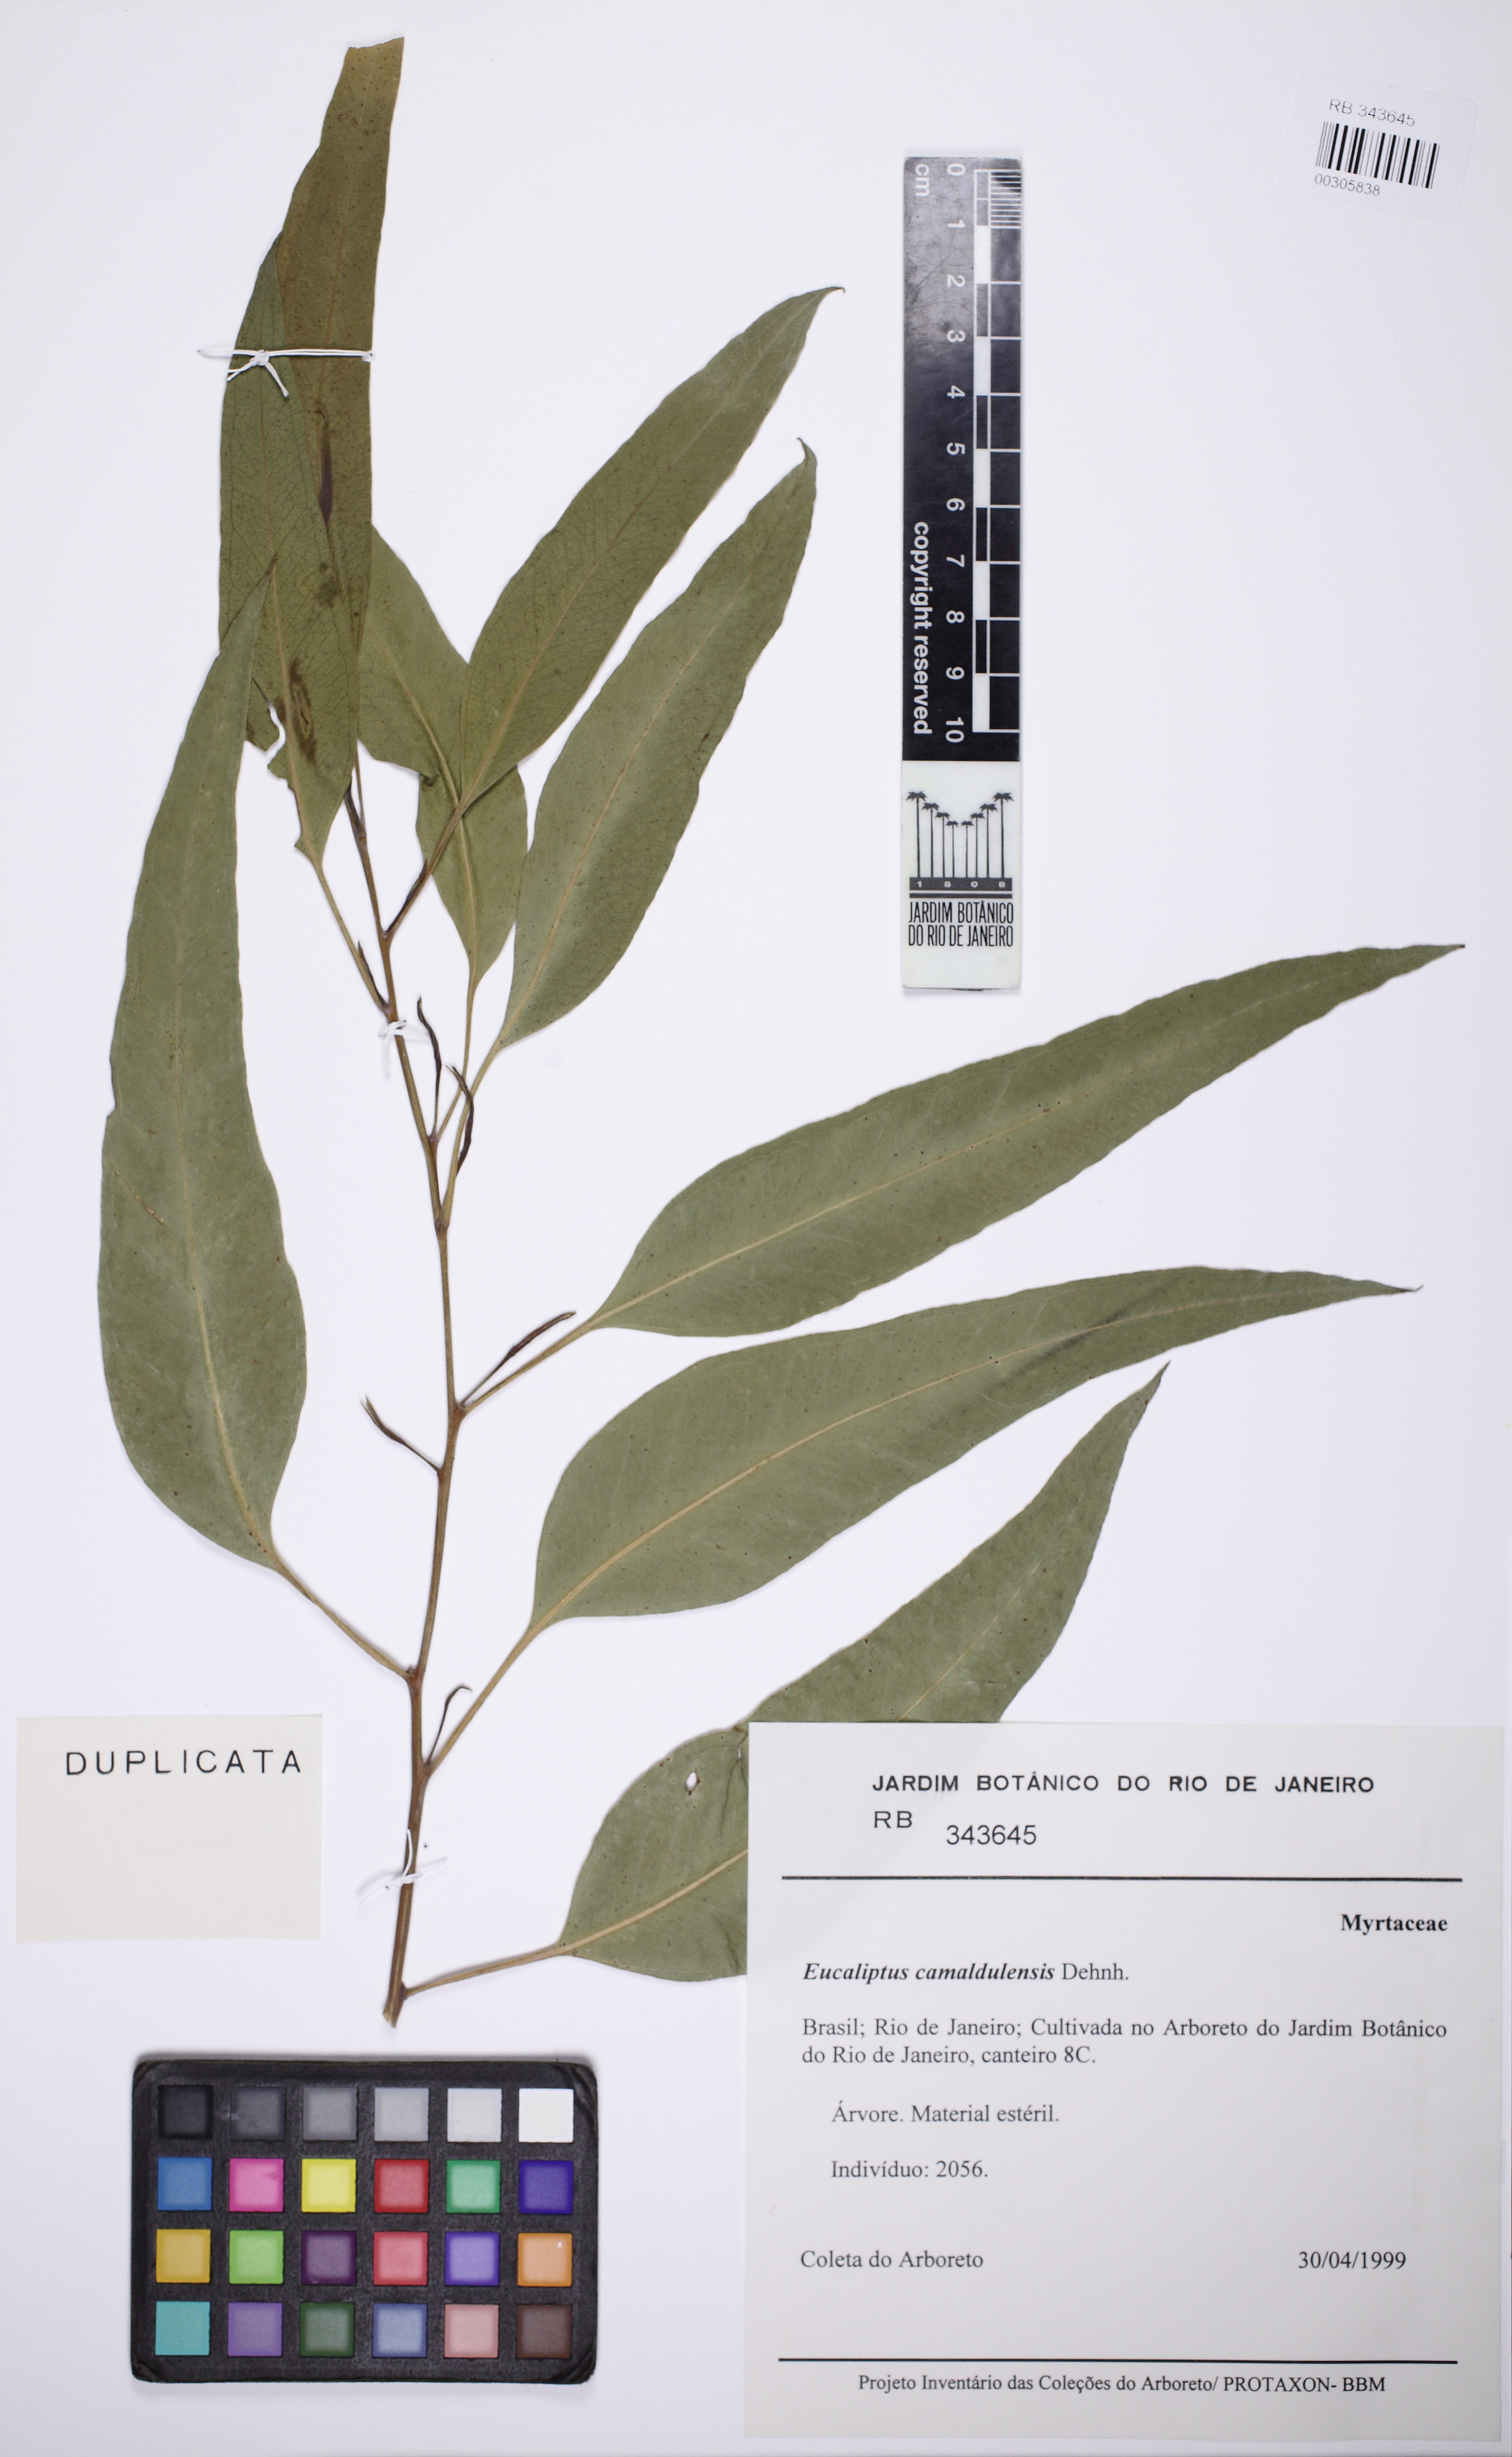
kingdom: Plantae
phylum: Tracheophyta
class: Magnoliopsida
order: Myrtales
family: Myrtaceae
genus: Eucalyptus
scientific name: Eucalyptus camaldulensis
